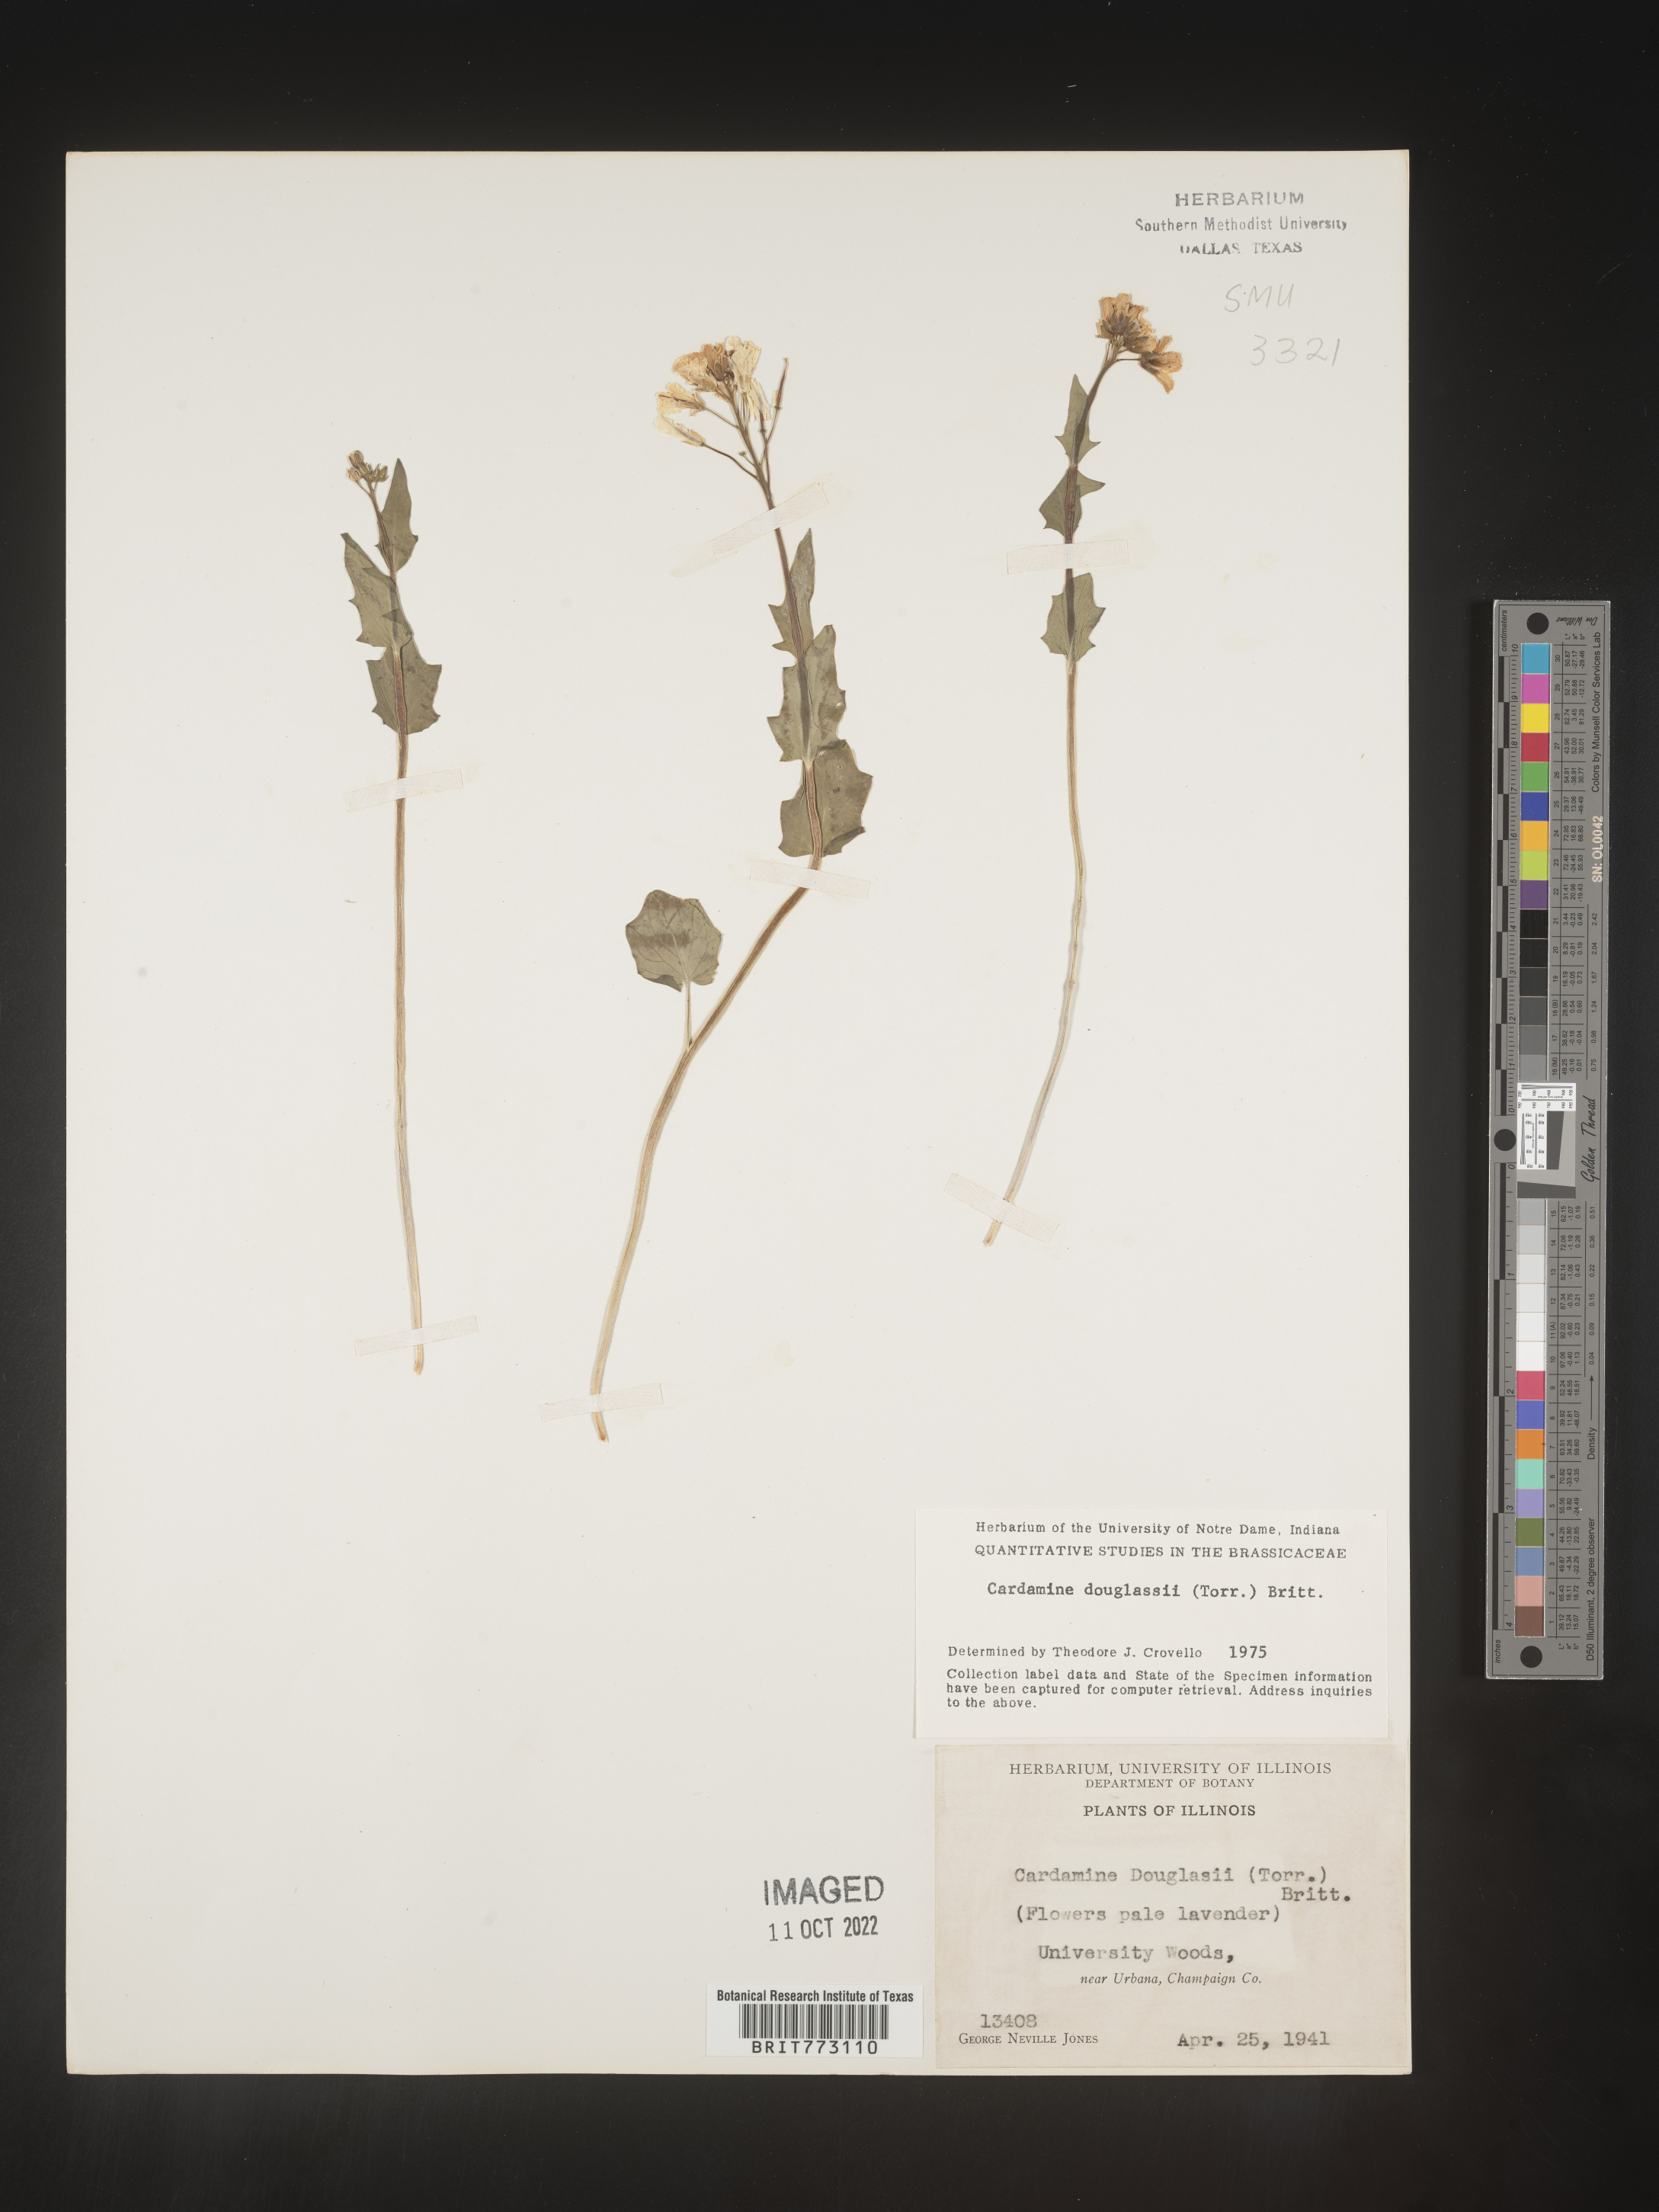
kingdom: Plantae
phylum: Tracheophyta
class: Magnoliopsida
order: Brassicales
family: Brassicaceae
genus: Cardamine
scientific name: Cardamine
